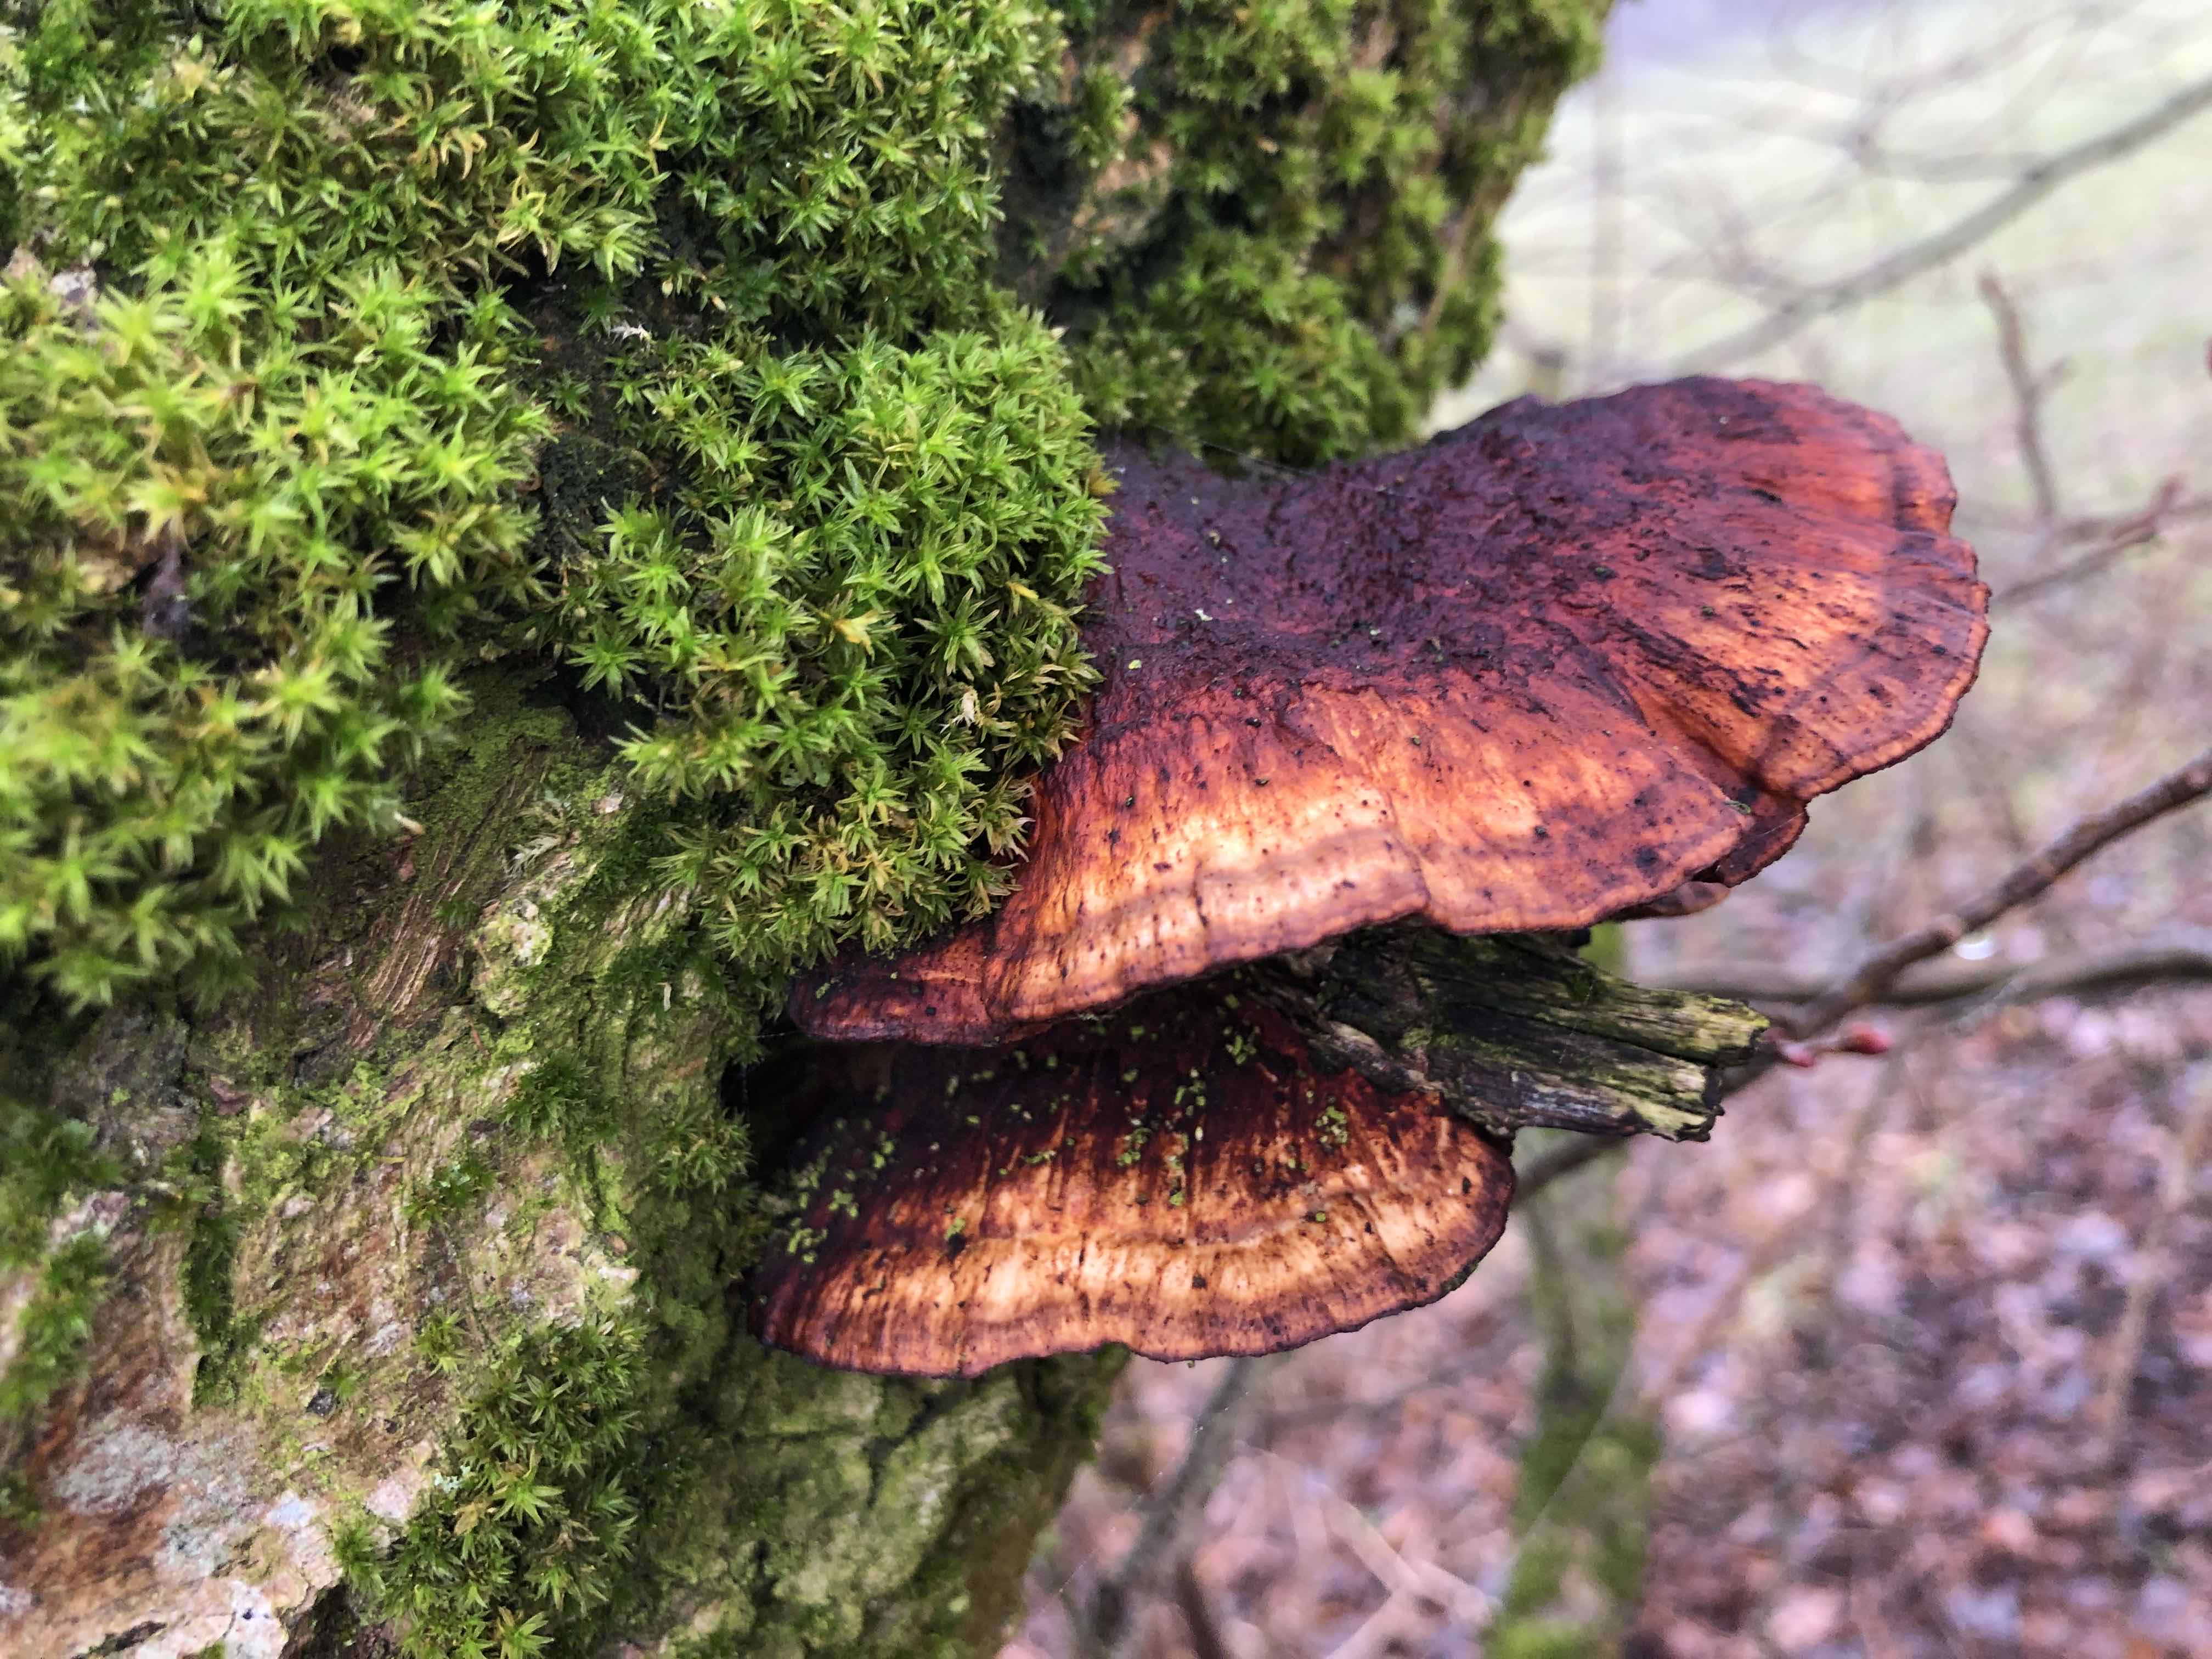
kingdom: Fungi
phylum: Basidiomycota
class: Agaricomycetes
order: Polyporales
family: Polyporaceae
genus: Daedaleopsis
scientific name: Daedaleopsis confragosa
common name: rødmende læderporesvamp
